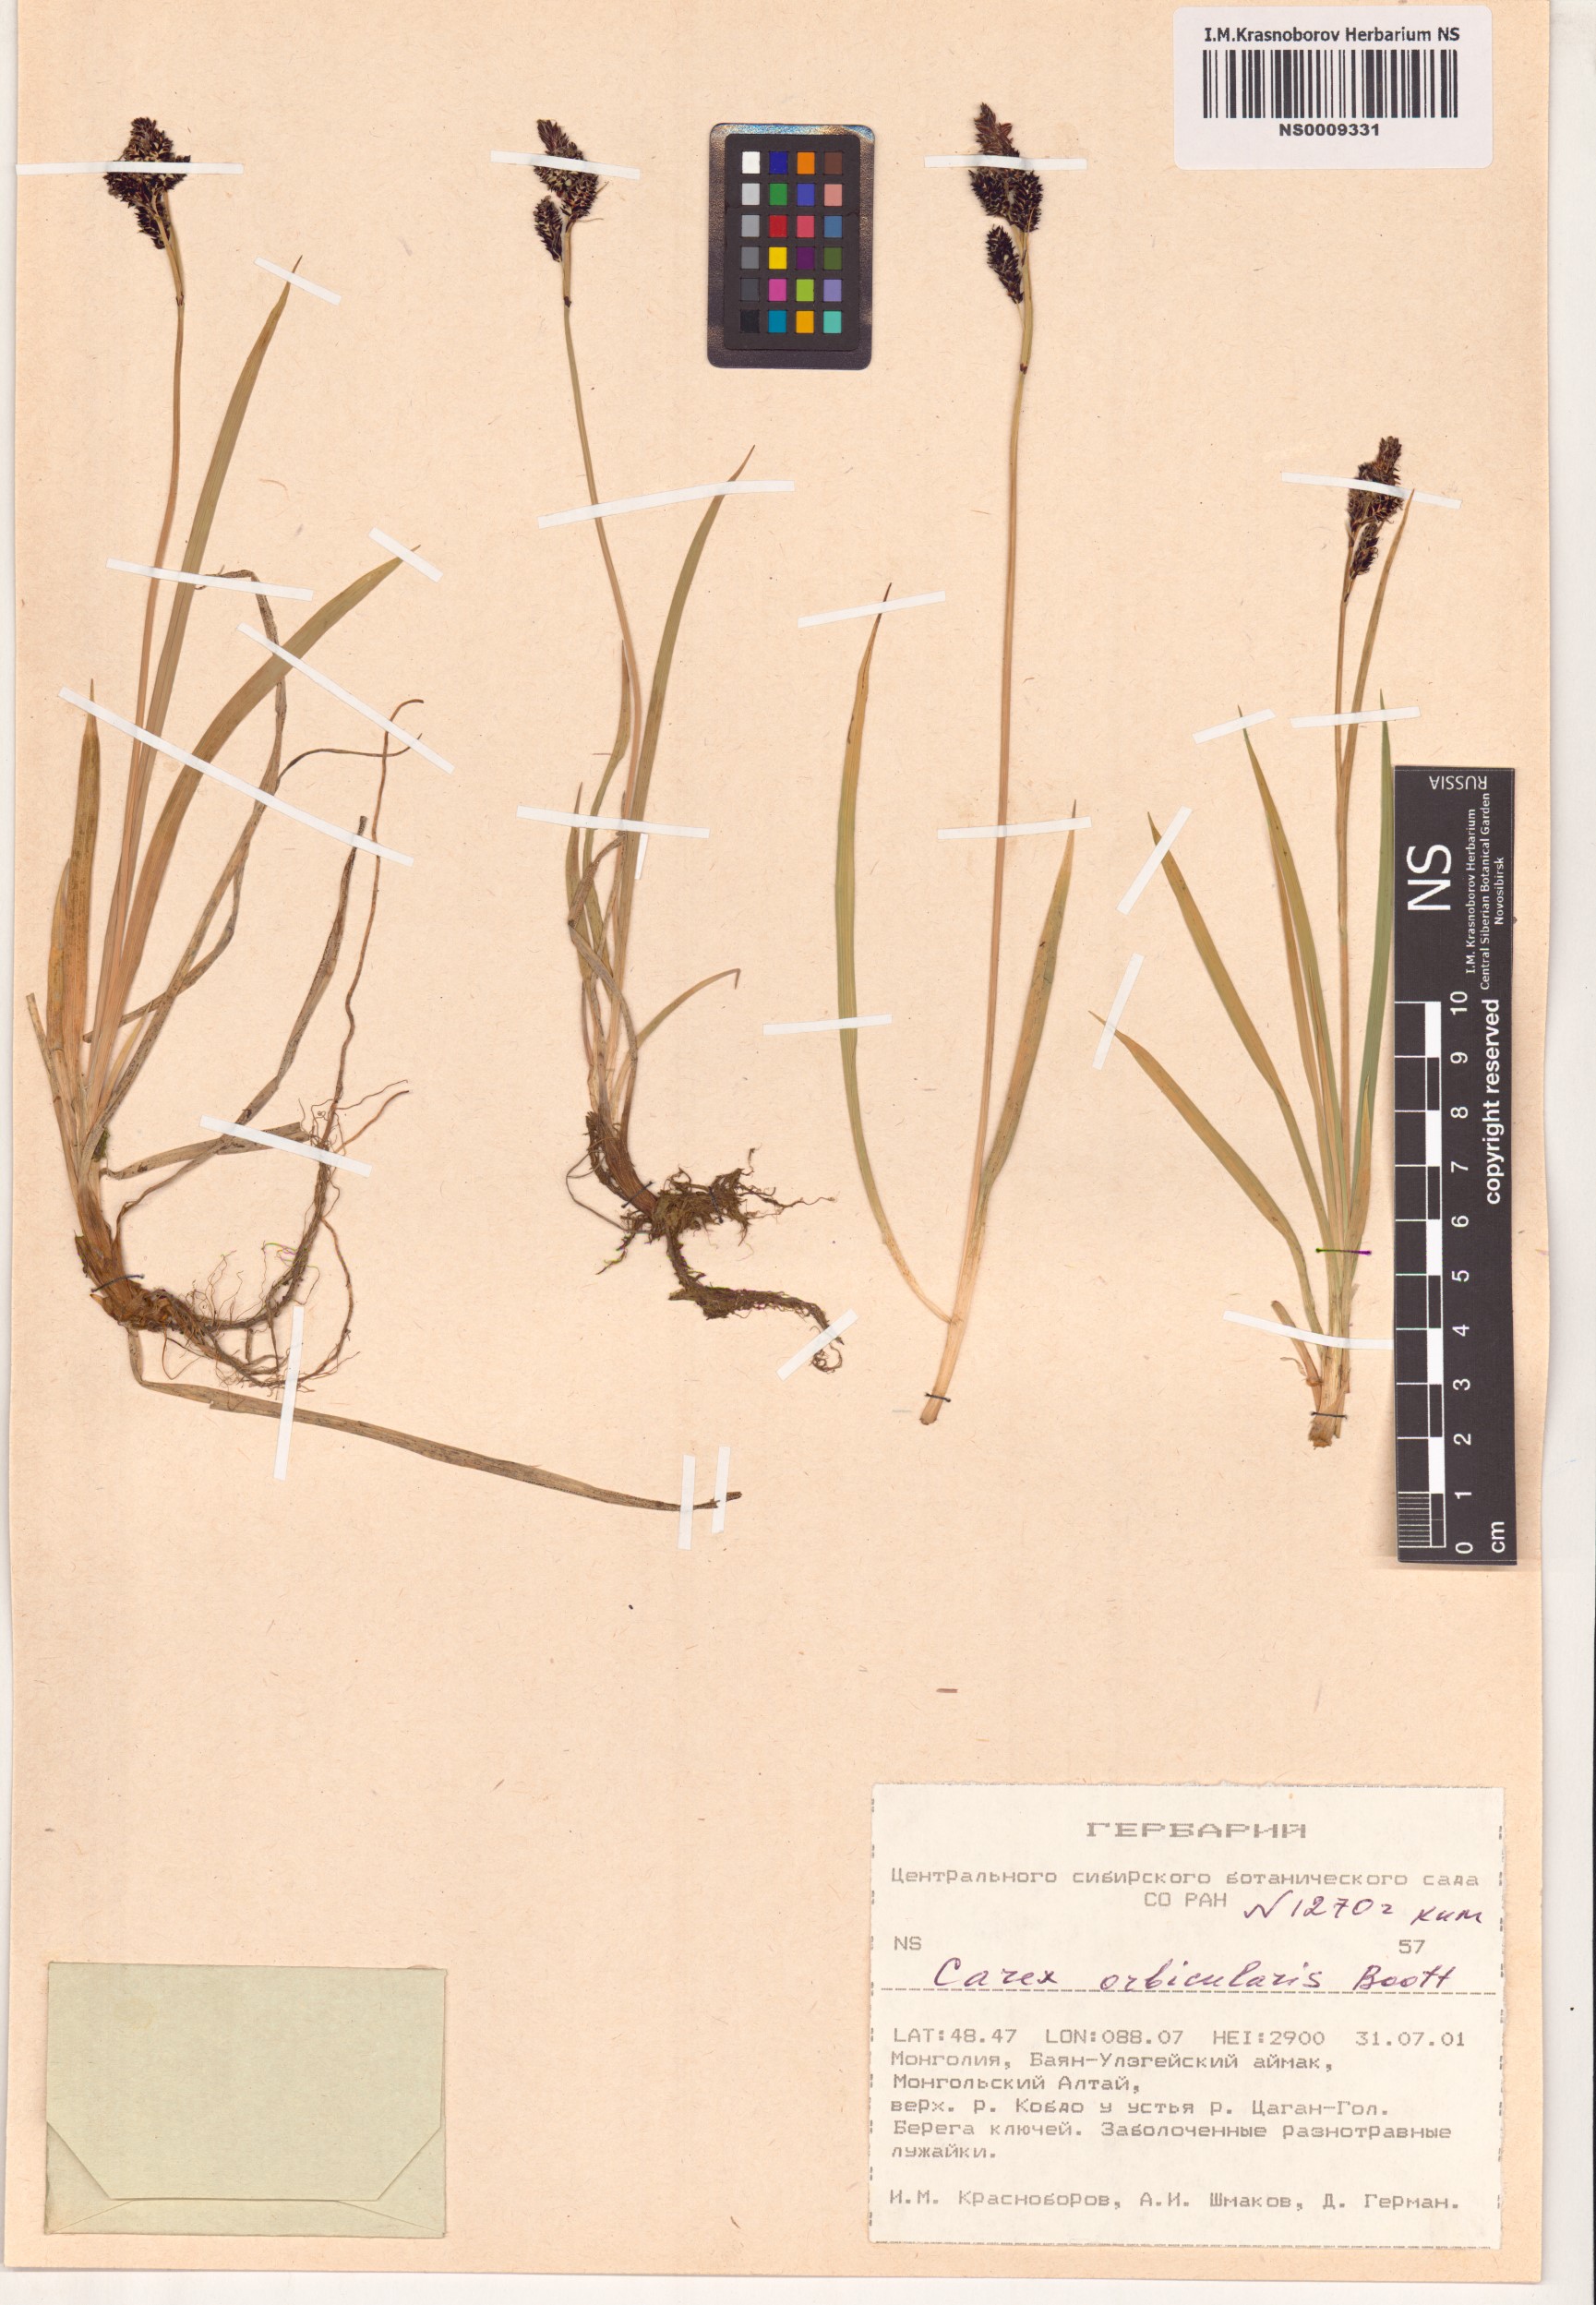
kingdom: Plantae
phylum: Tracheophyta
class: Liliopsida
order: Poales
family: Cyperaceae
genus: Carex
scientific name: Carex orbicularis
